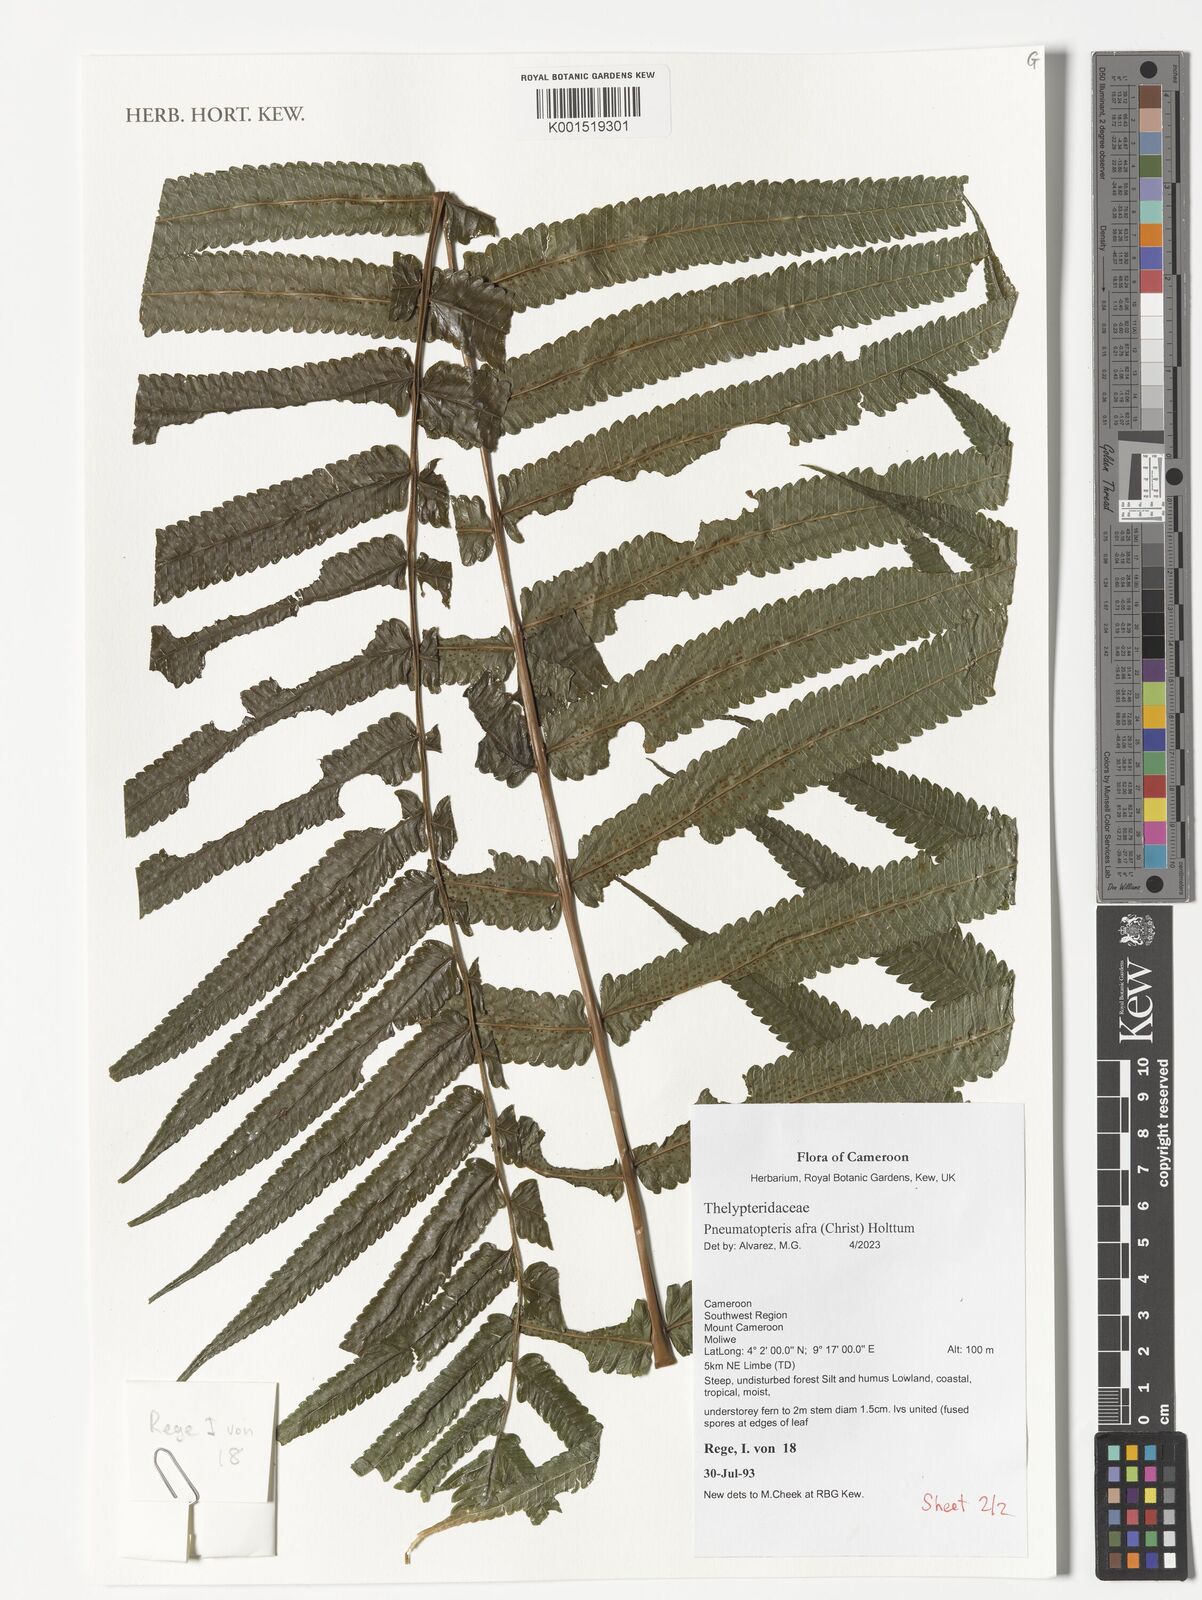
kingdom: Plantae
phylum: Tracheophyta
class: Polypodiopsida
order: Polypodiales
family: Thelypteridaceae
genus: Abacopteris
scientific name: Abacopteris afra
